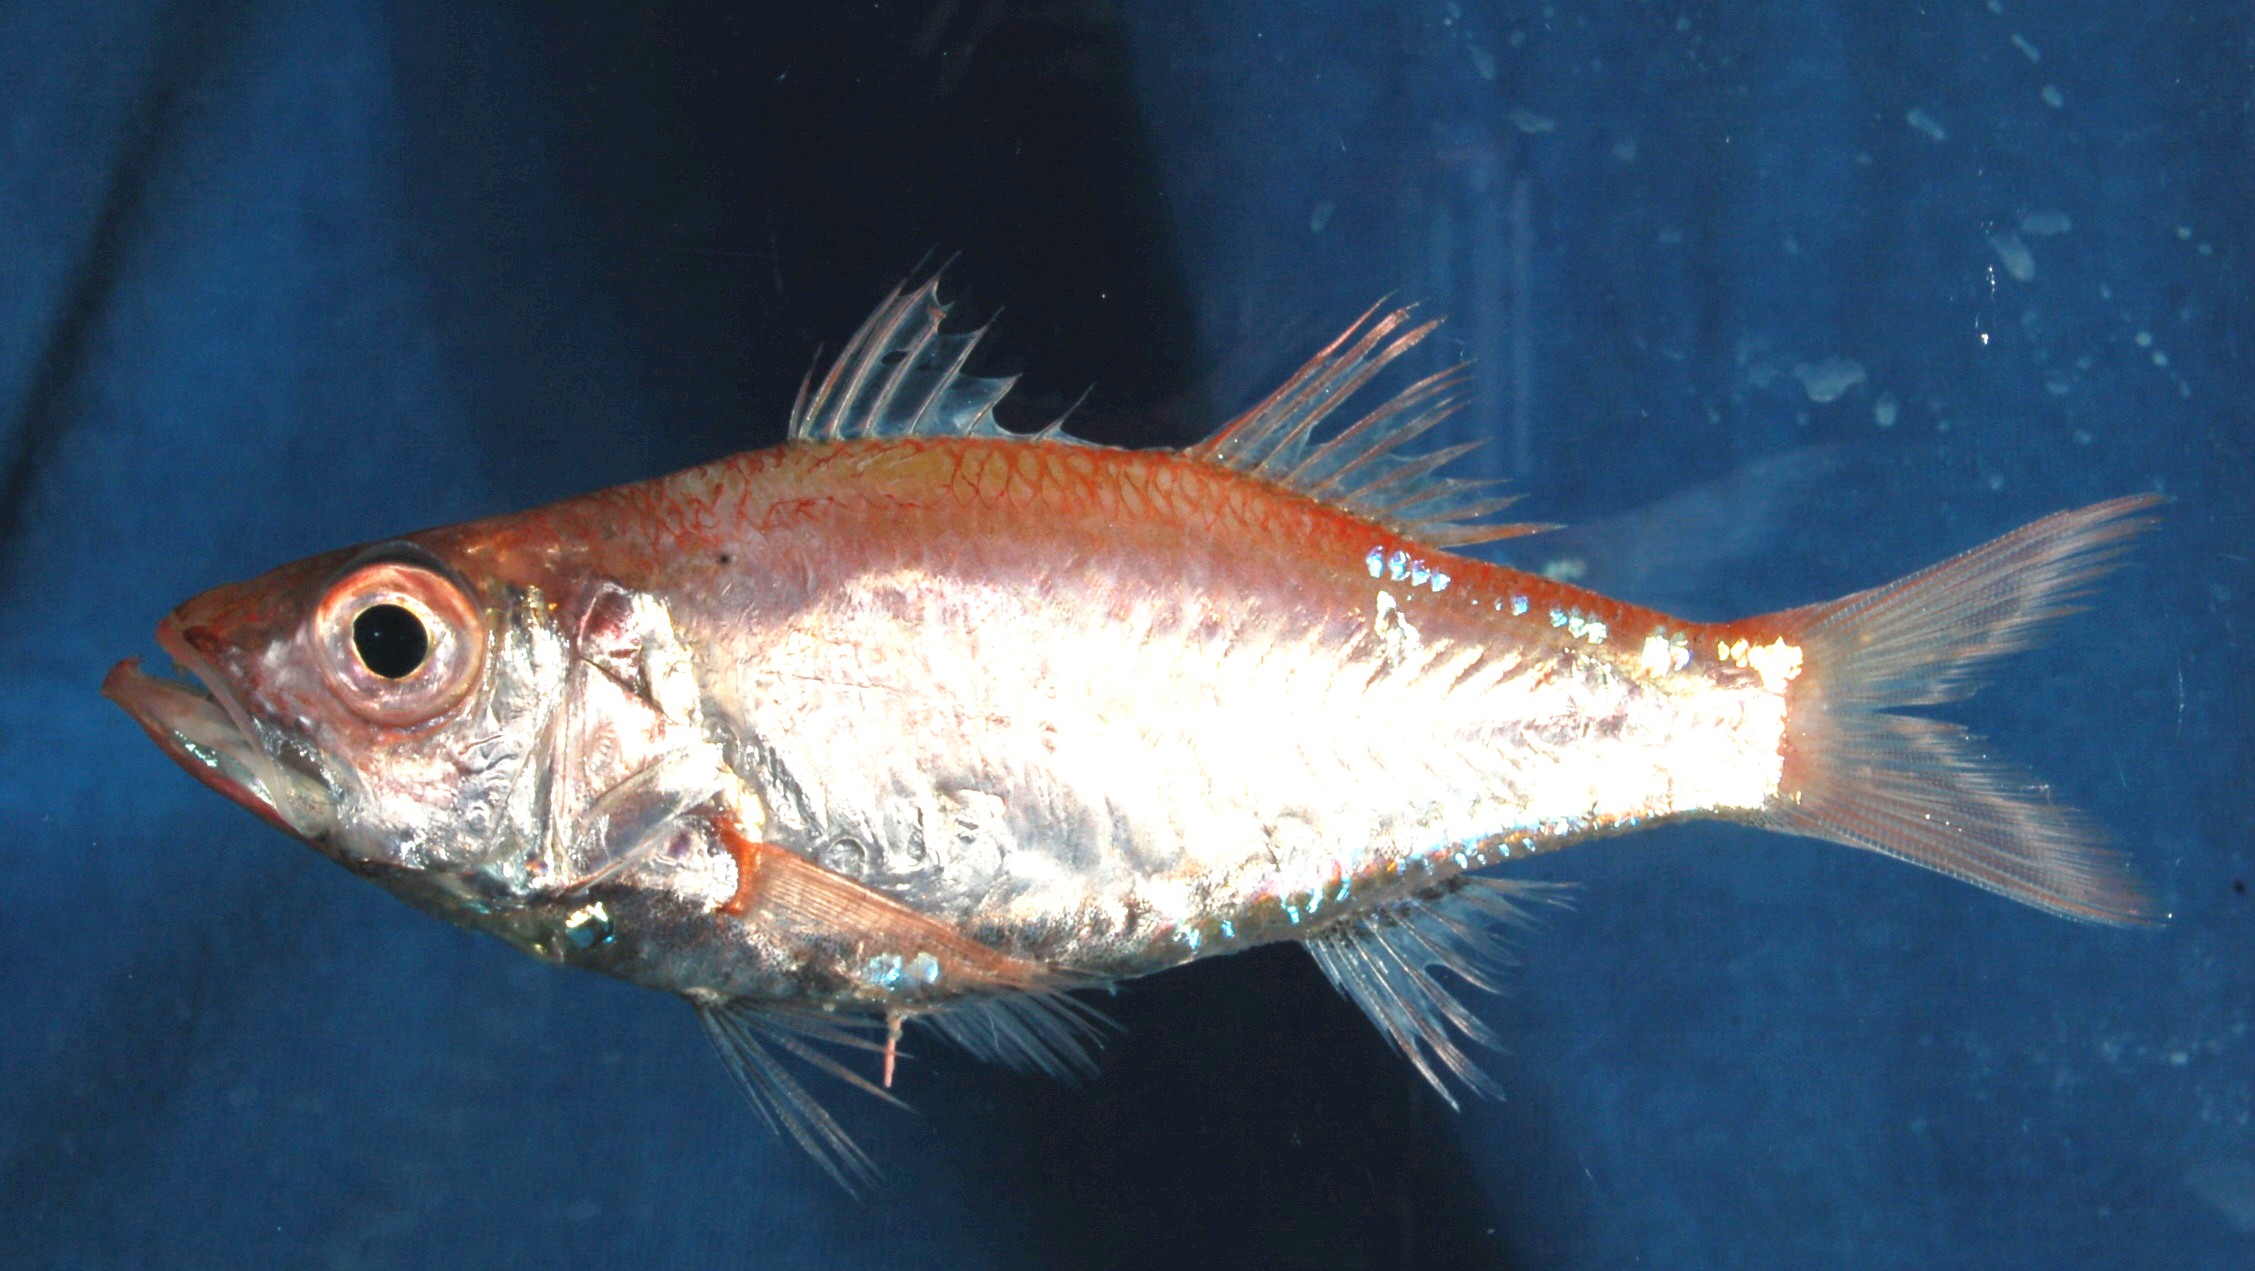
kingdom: Animalia
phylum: Chordata
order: Perciformes
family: Acropomatidae
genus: Acropoma
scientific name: Acropoma heemstrai
